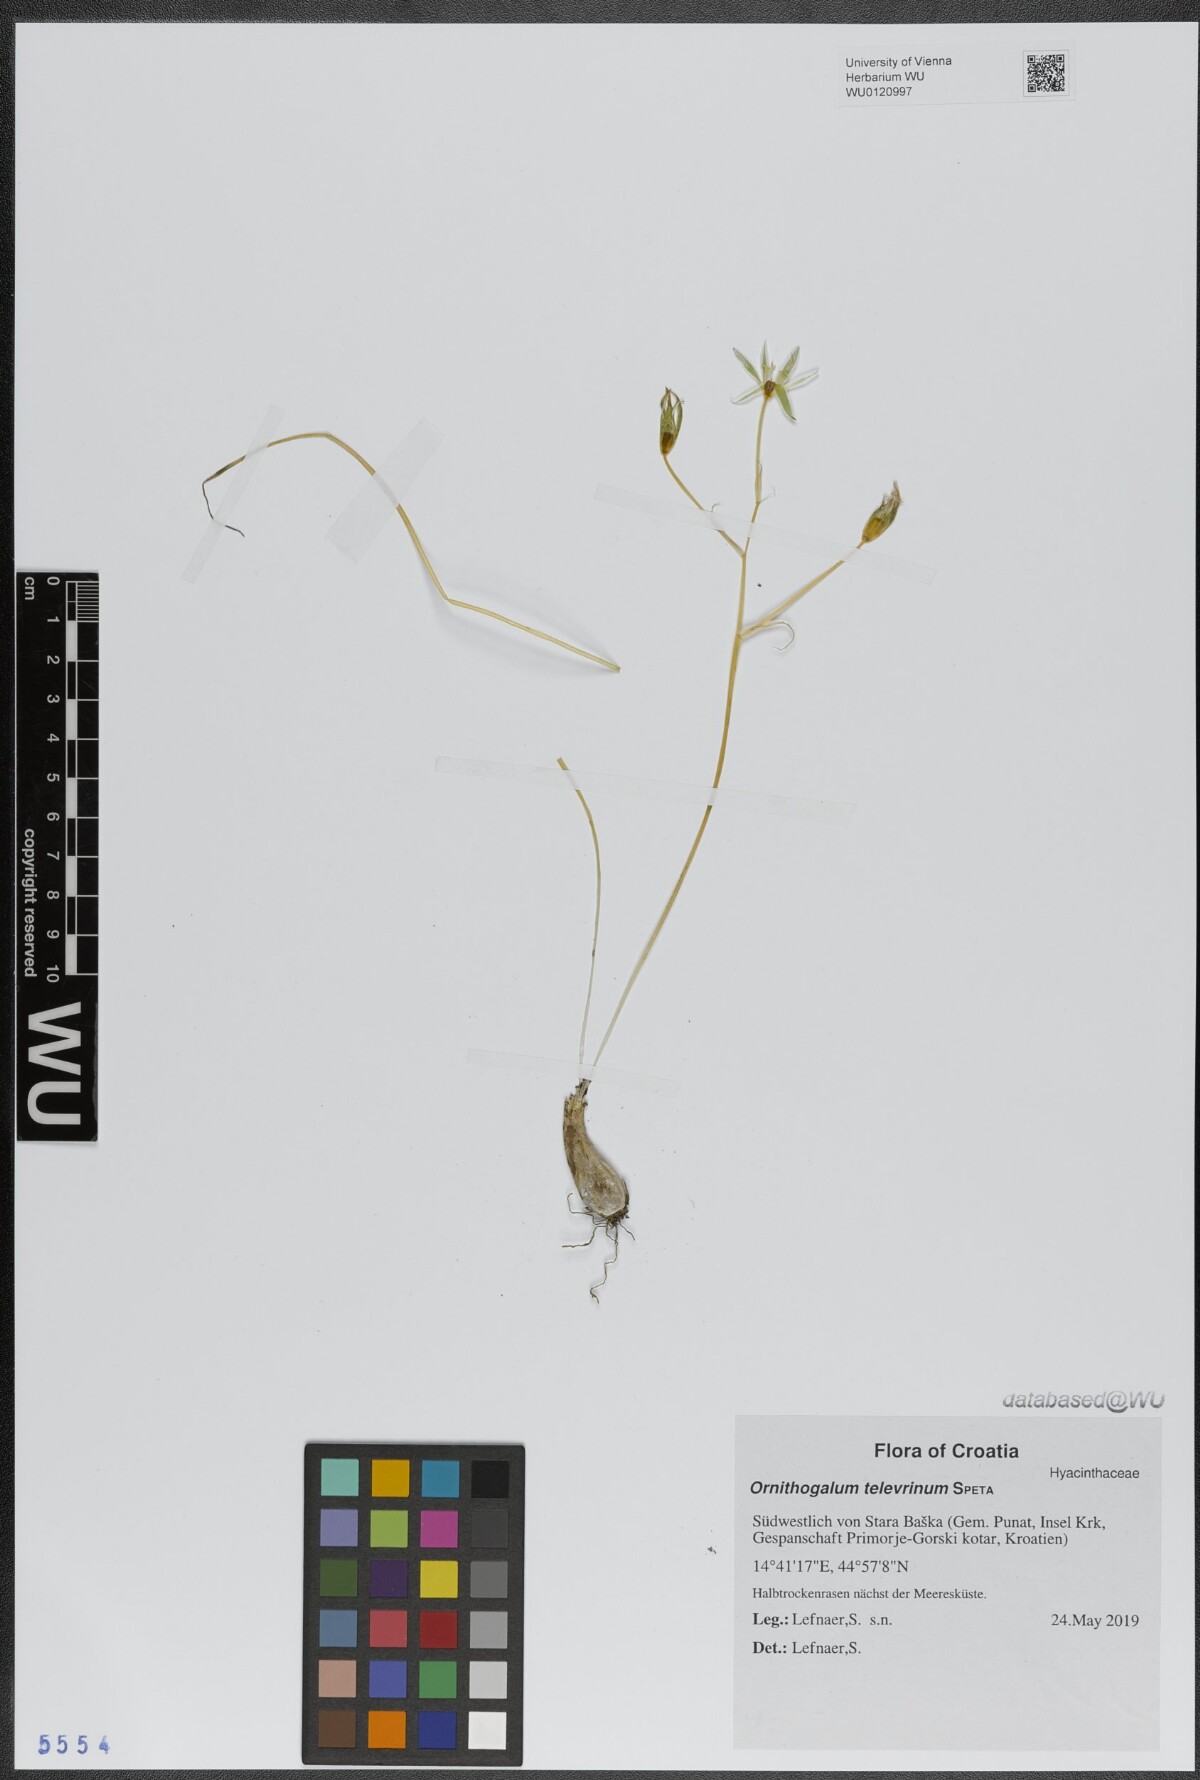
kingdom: Plantae
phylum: Tracheophyta
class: Liliopsida
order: Asparagales
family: Asparagaceae
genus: Ornithogalum
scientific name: Ornithogalum televrinum
